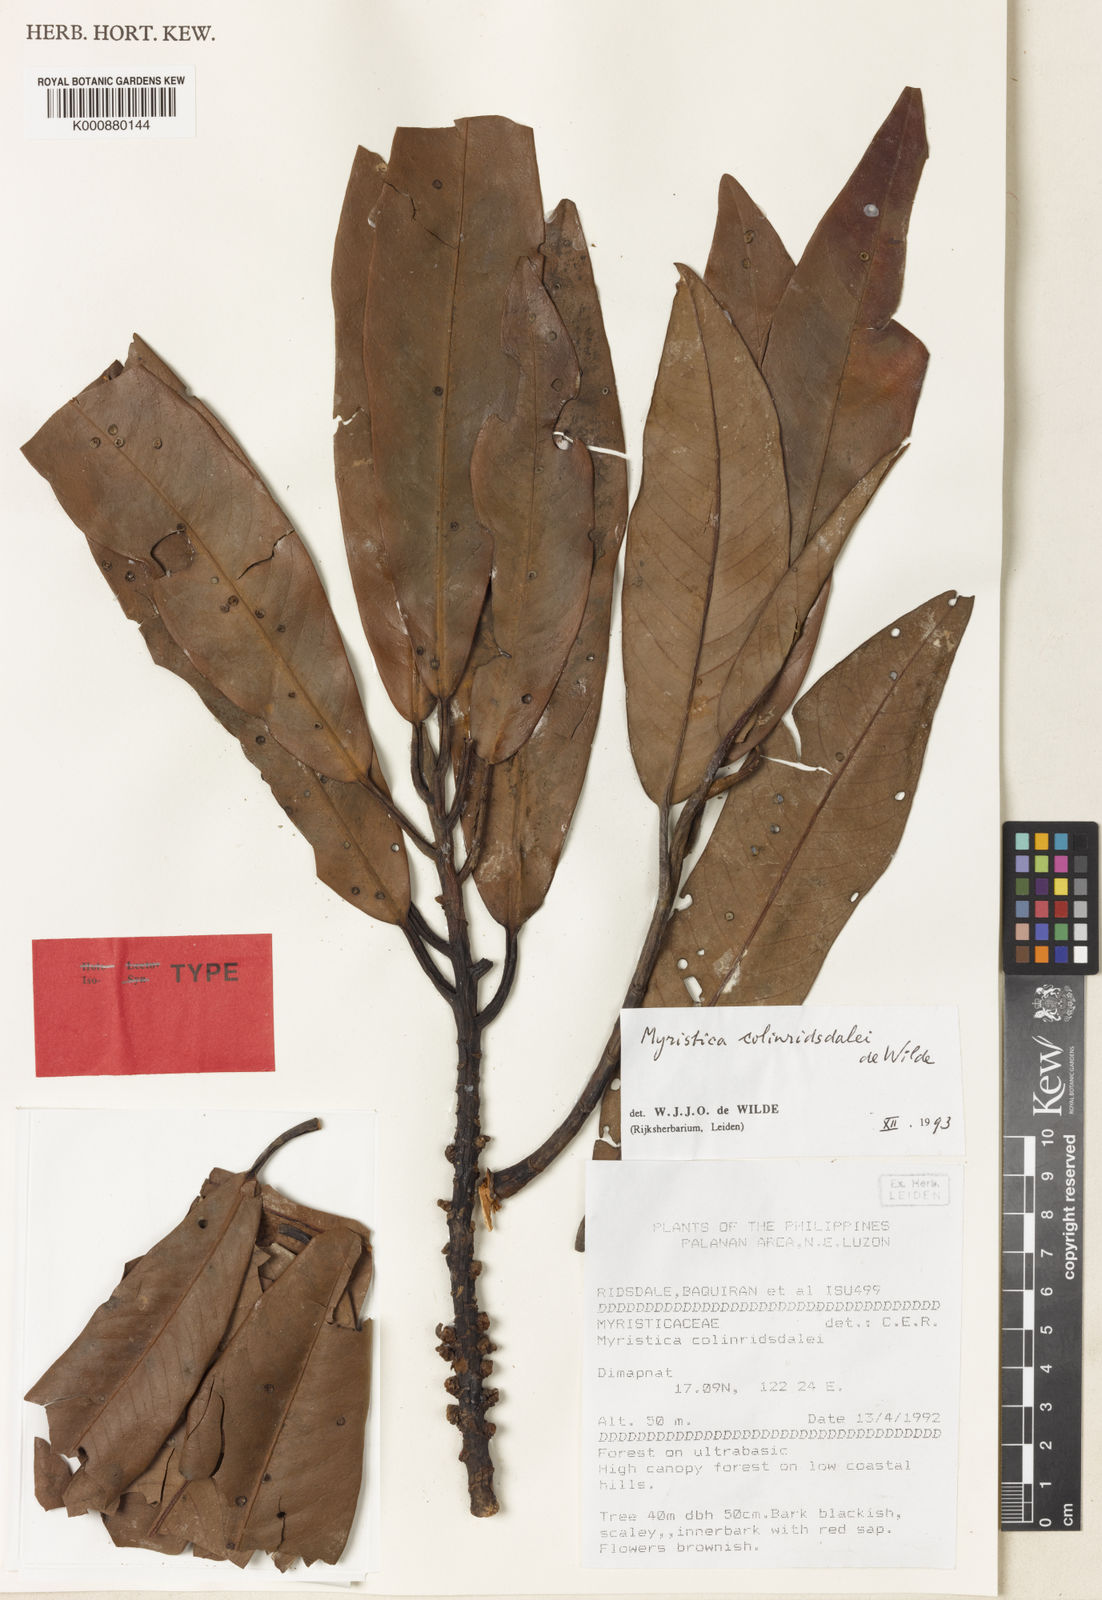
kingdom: Plantae
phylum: Tracheophyta
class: Magnoliopsida
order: Magnoliales
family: Myristicaceae
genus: Myristica
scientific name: Myristica colinridsdalei
